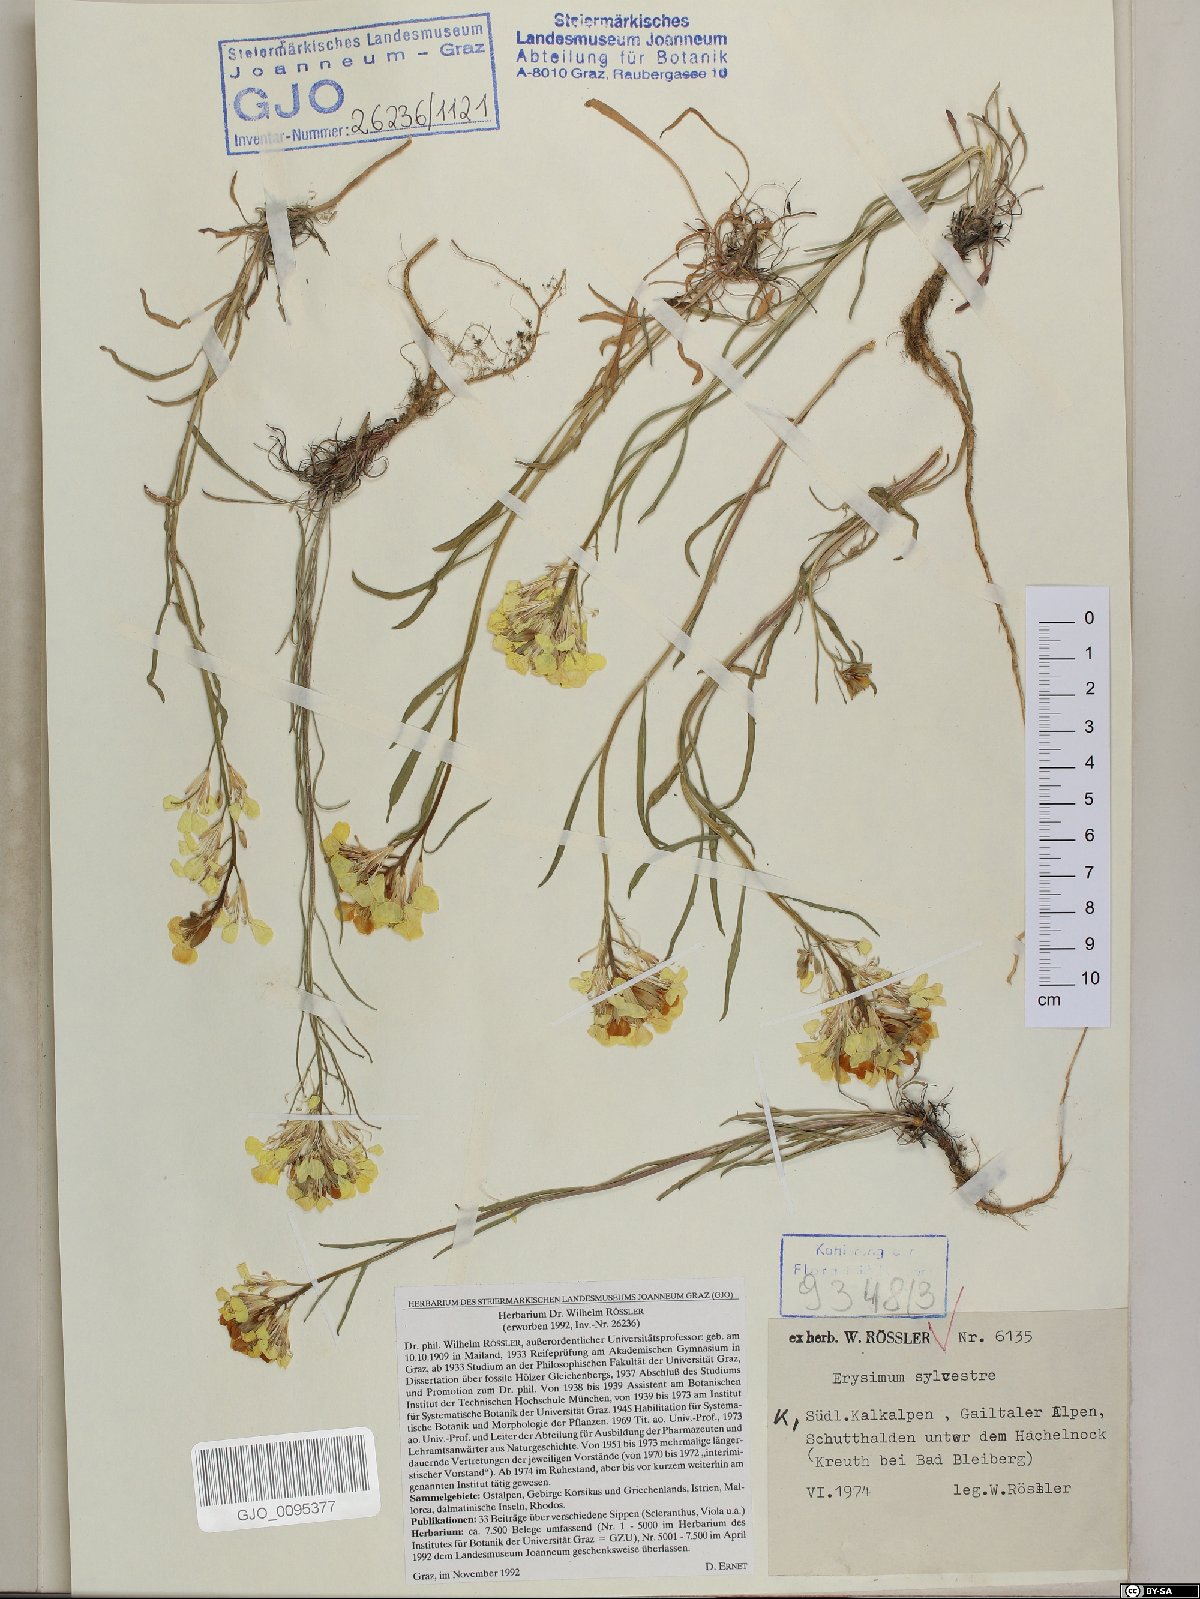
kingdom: Plantae
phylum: Tracheophyta
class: Magnoliopsida
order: Brassicales
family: Brassicaceae
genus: Erysimum
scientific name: Erysimum sylvestre
